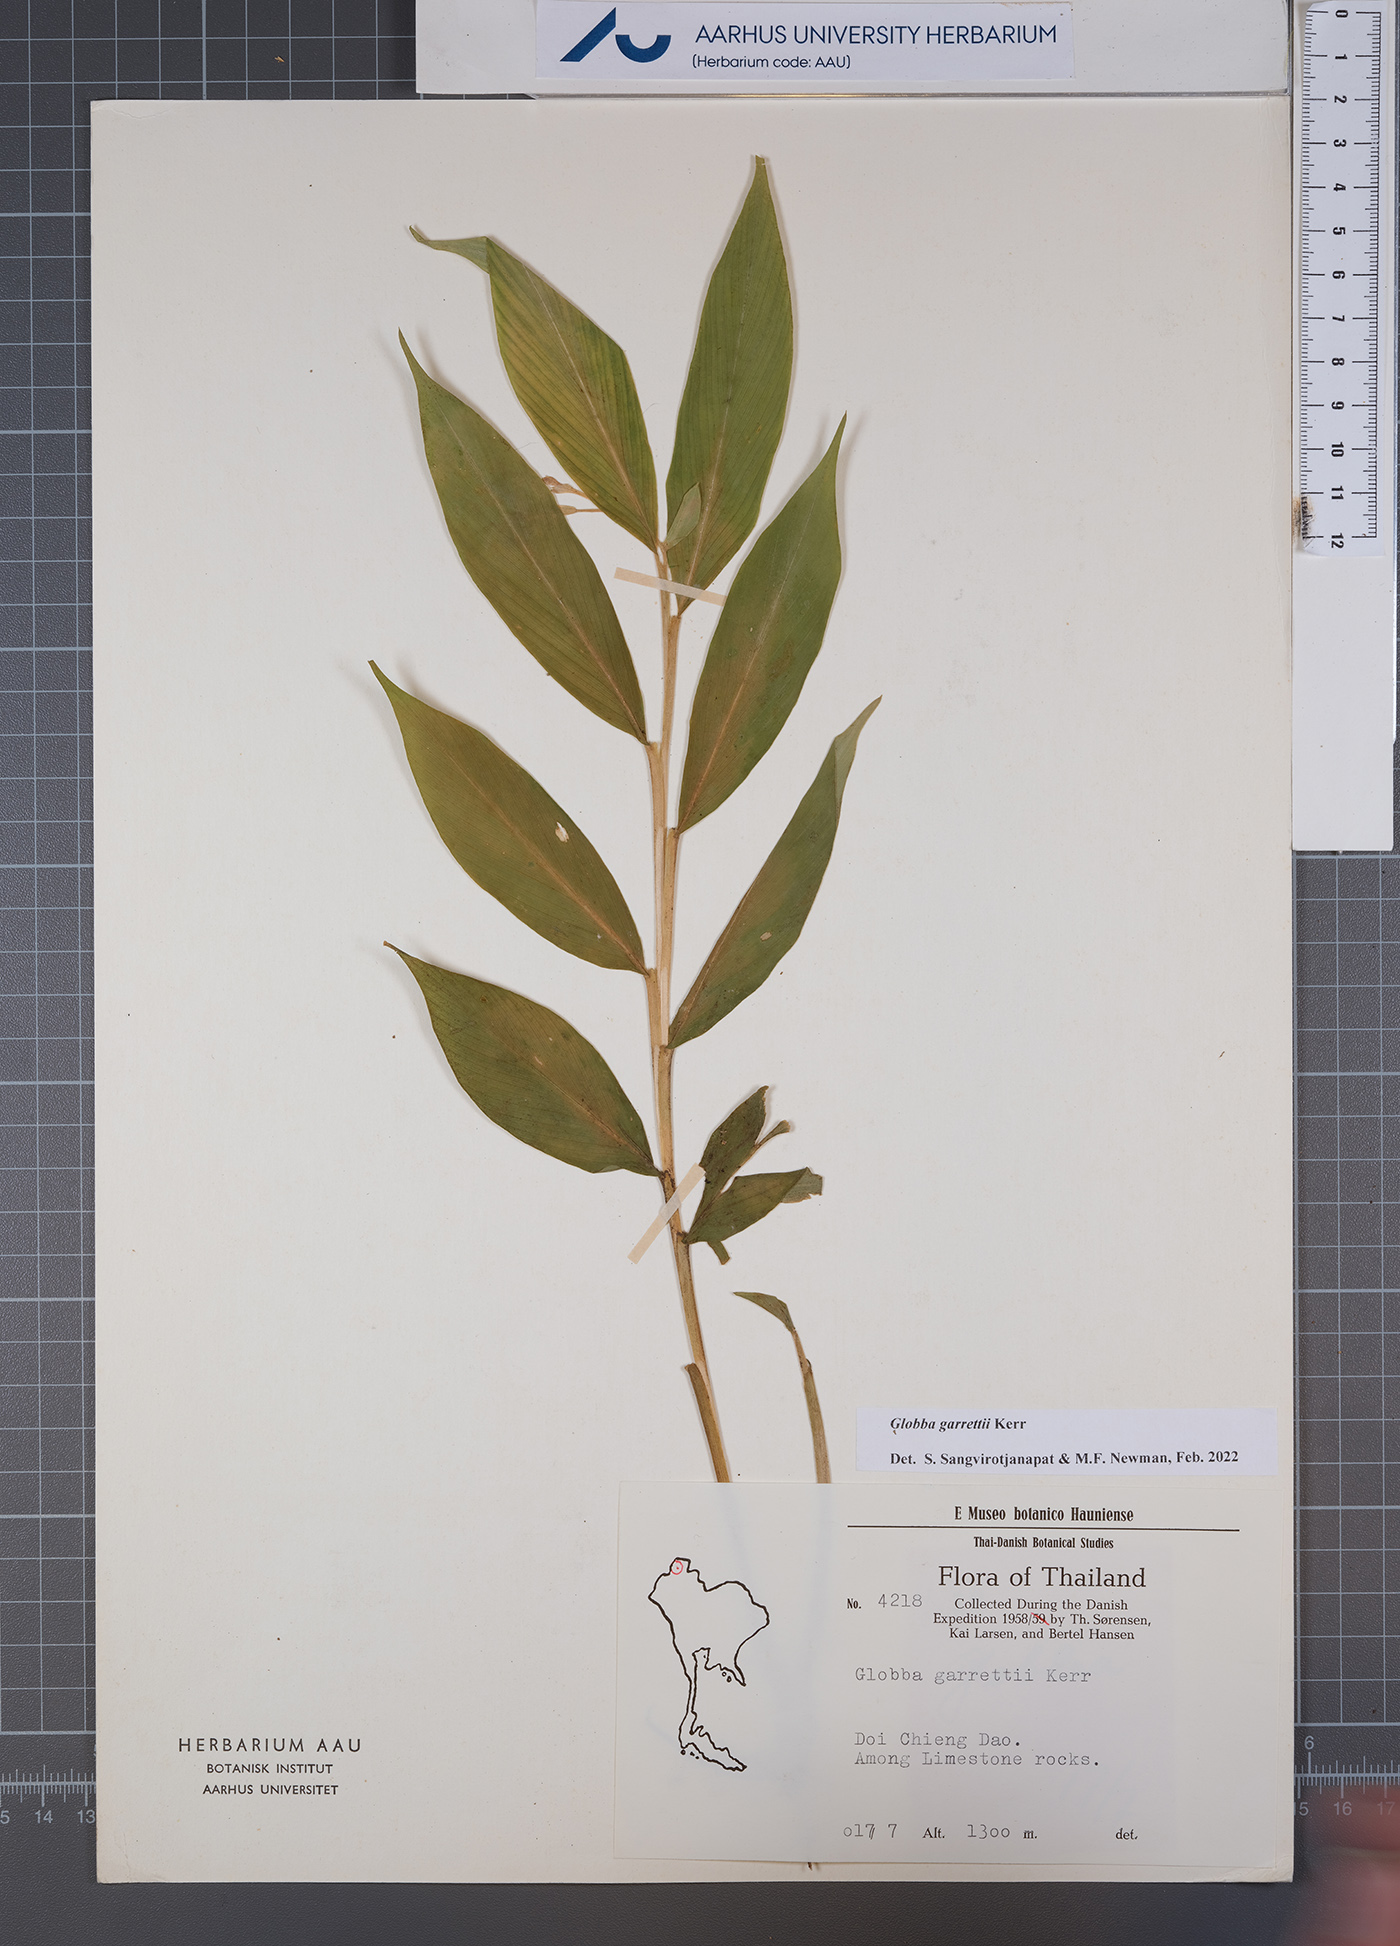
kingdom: Plantae
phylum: Tracheophyta
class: Liliopsida
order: Zingiberales
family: Zingiberaceae
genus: Globba
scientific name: Globba garrettii
